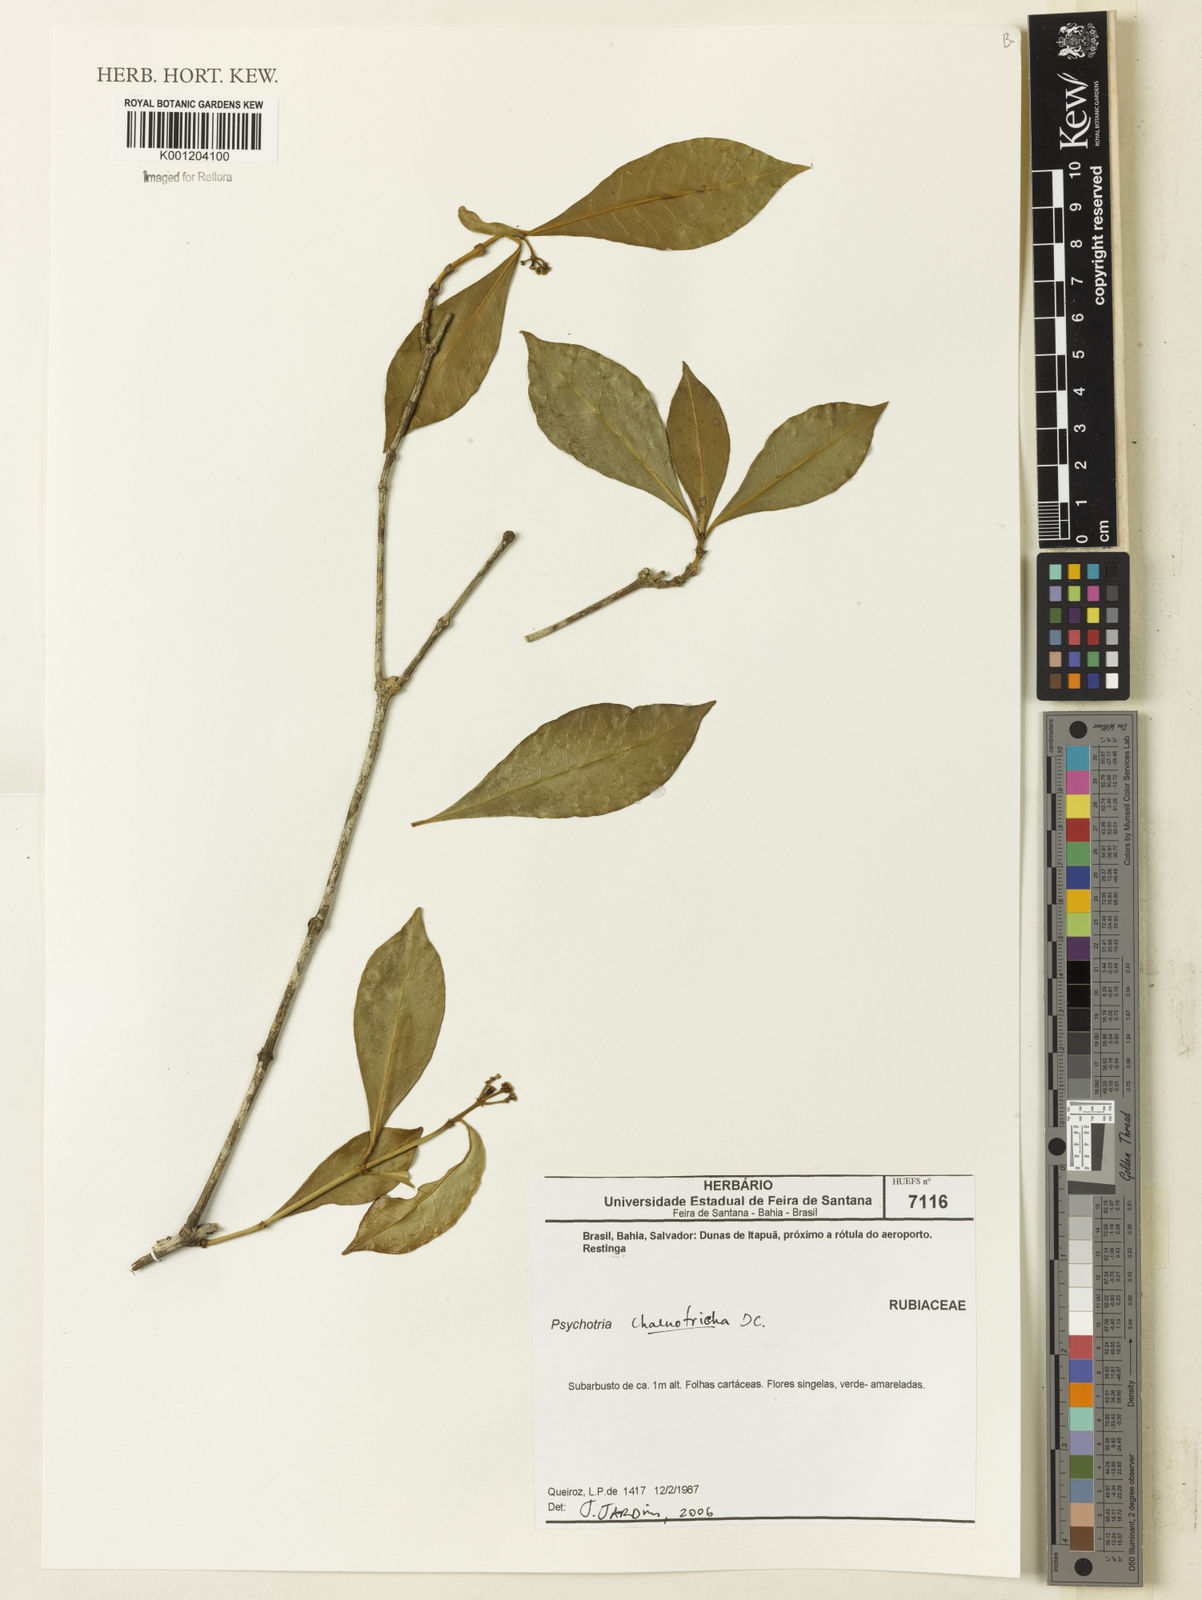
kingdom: Plantae
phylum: Tracheophyta
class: Magnoliopsida
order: Gentianales
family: Rubiaceae
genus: Eumachia
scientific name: Eumachia chaenotricha
